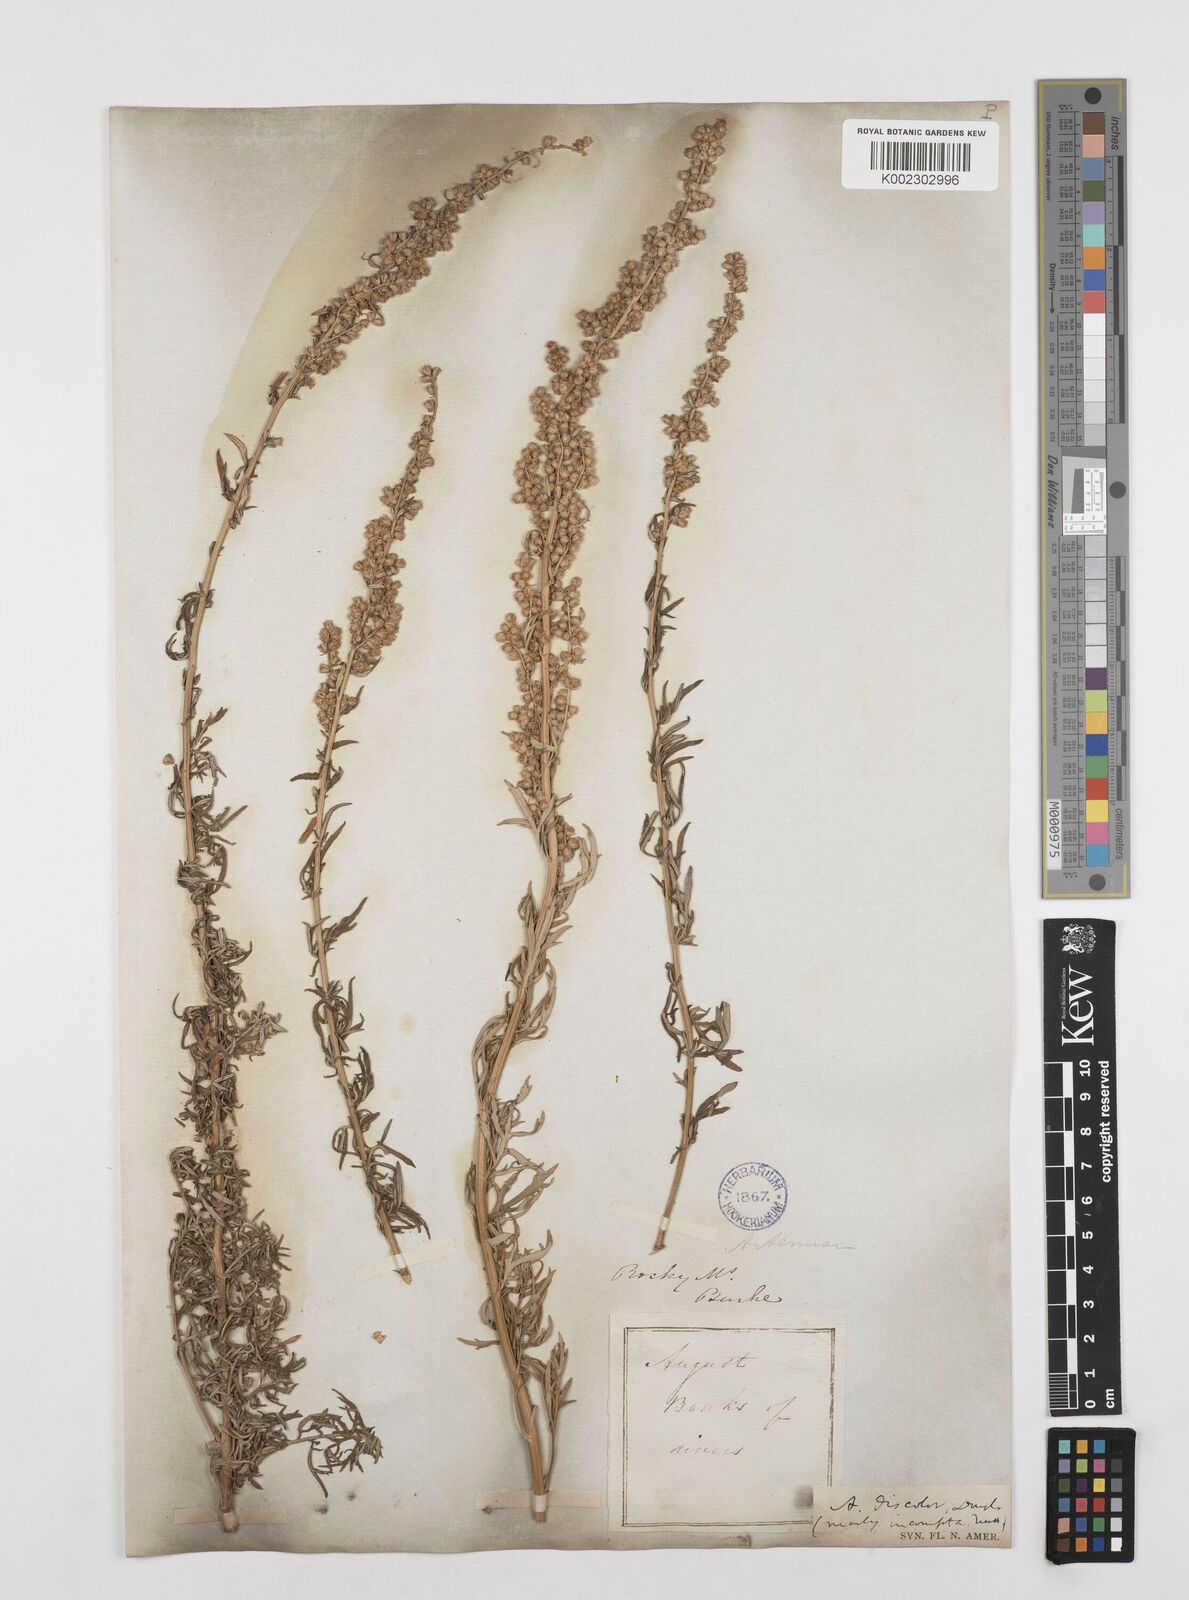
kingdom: Plantae
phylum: Tracheophyta
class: Magnoliopsida
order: Asterales
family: Asteraceae
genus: Artemisia
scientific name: Artemisia michauxiana
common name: Lemon sagewort
